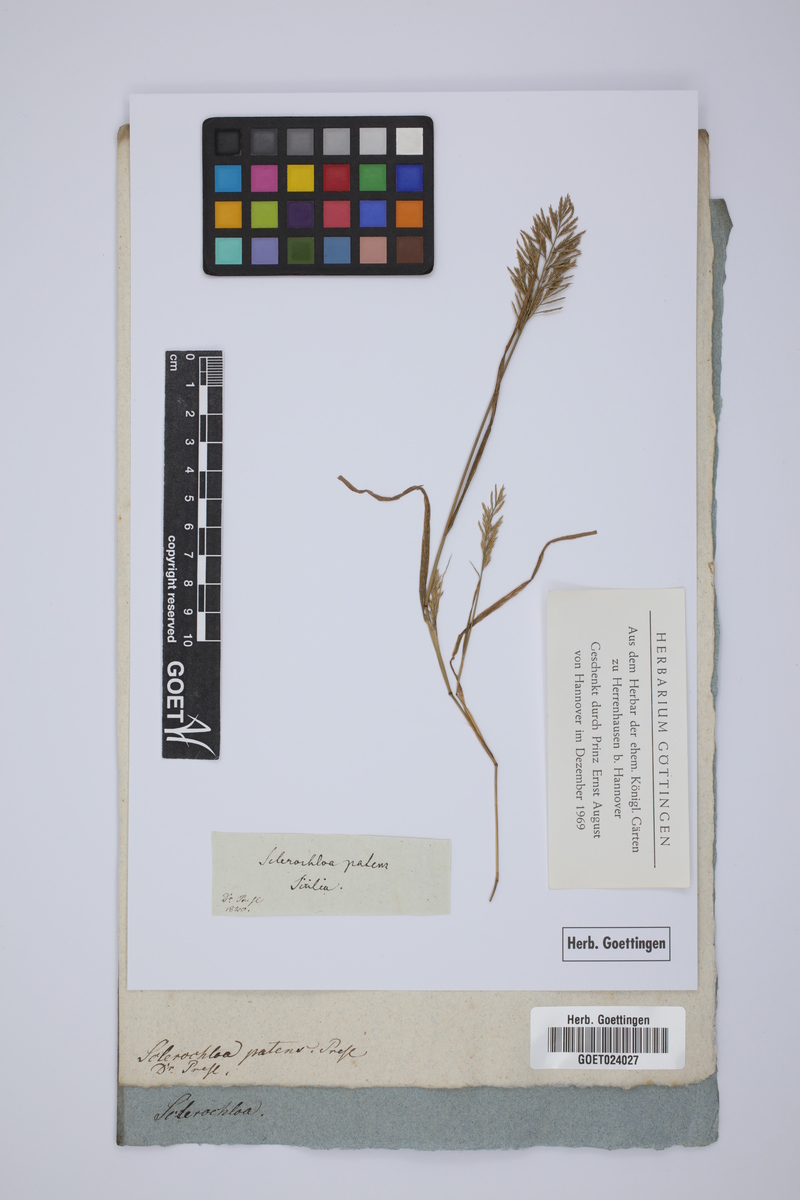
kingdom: Plantae
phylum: Tracheophyta
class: Liliopsida
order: Poales
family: Poaceae
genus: Catapodium
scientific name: Catapodium rigidum
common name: Fern-grass
